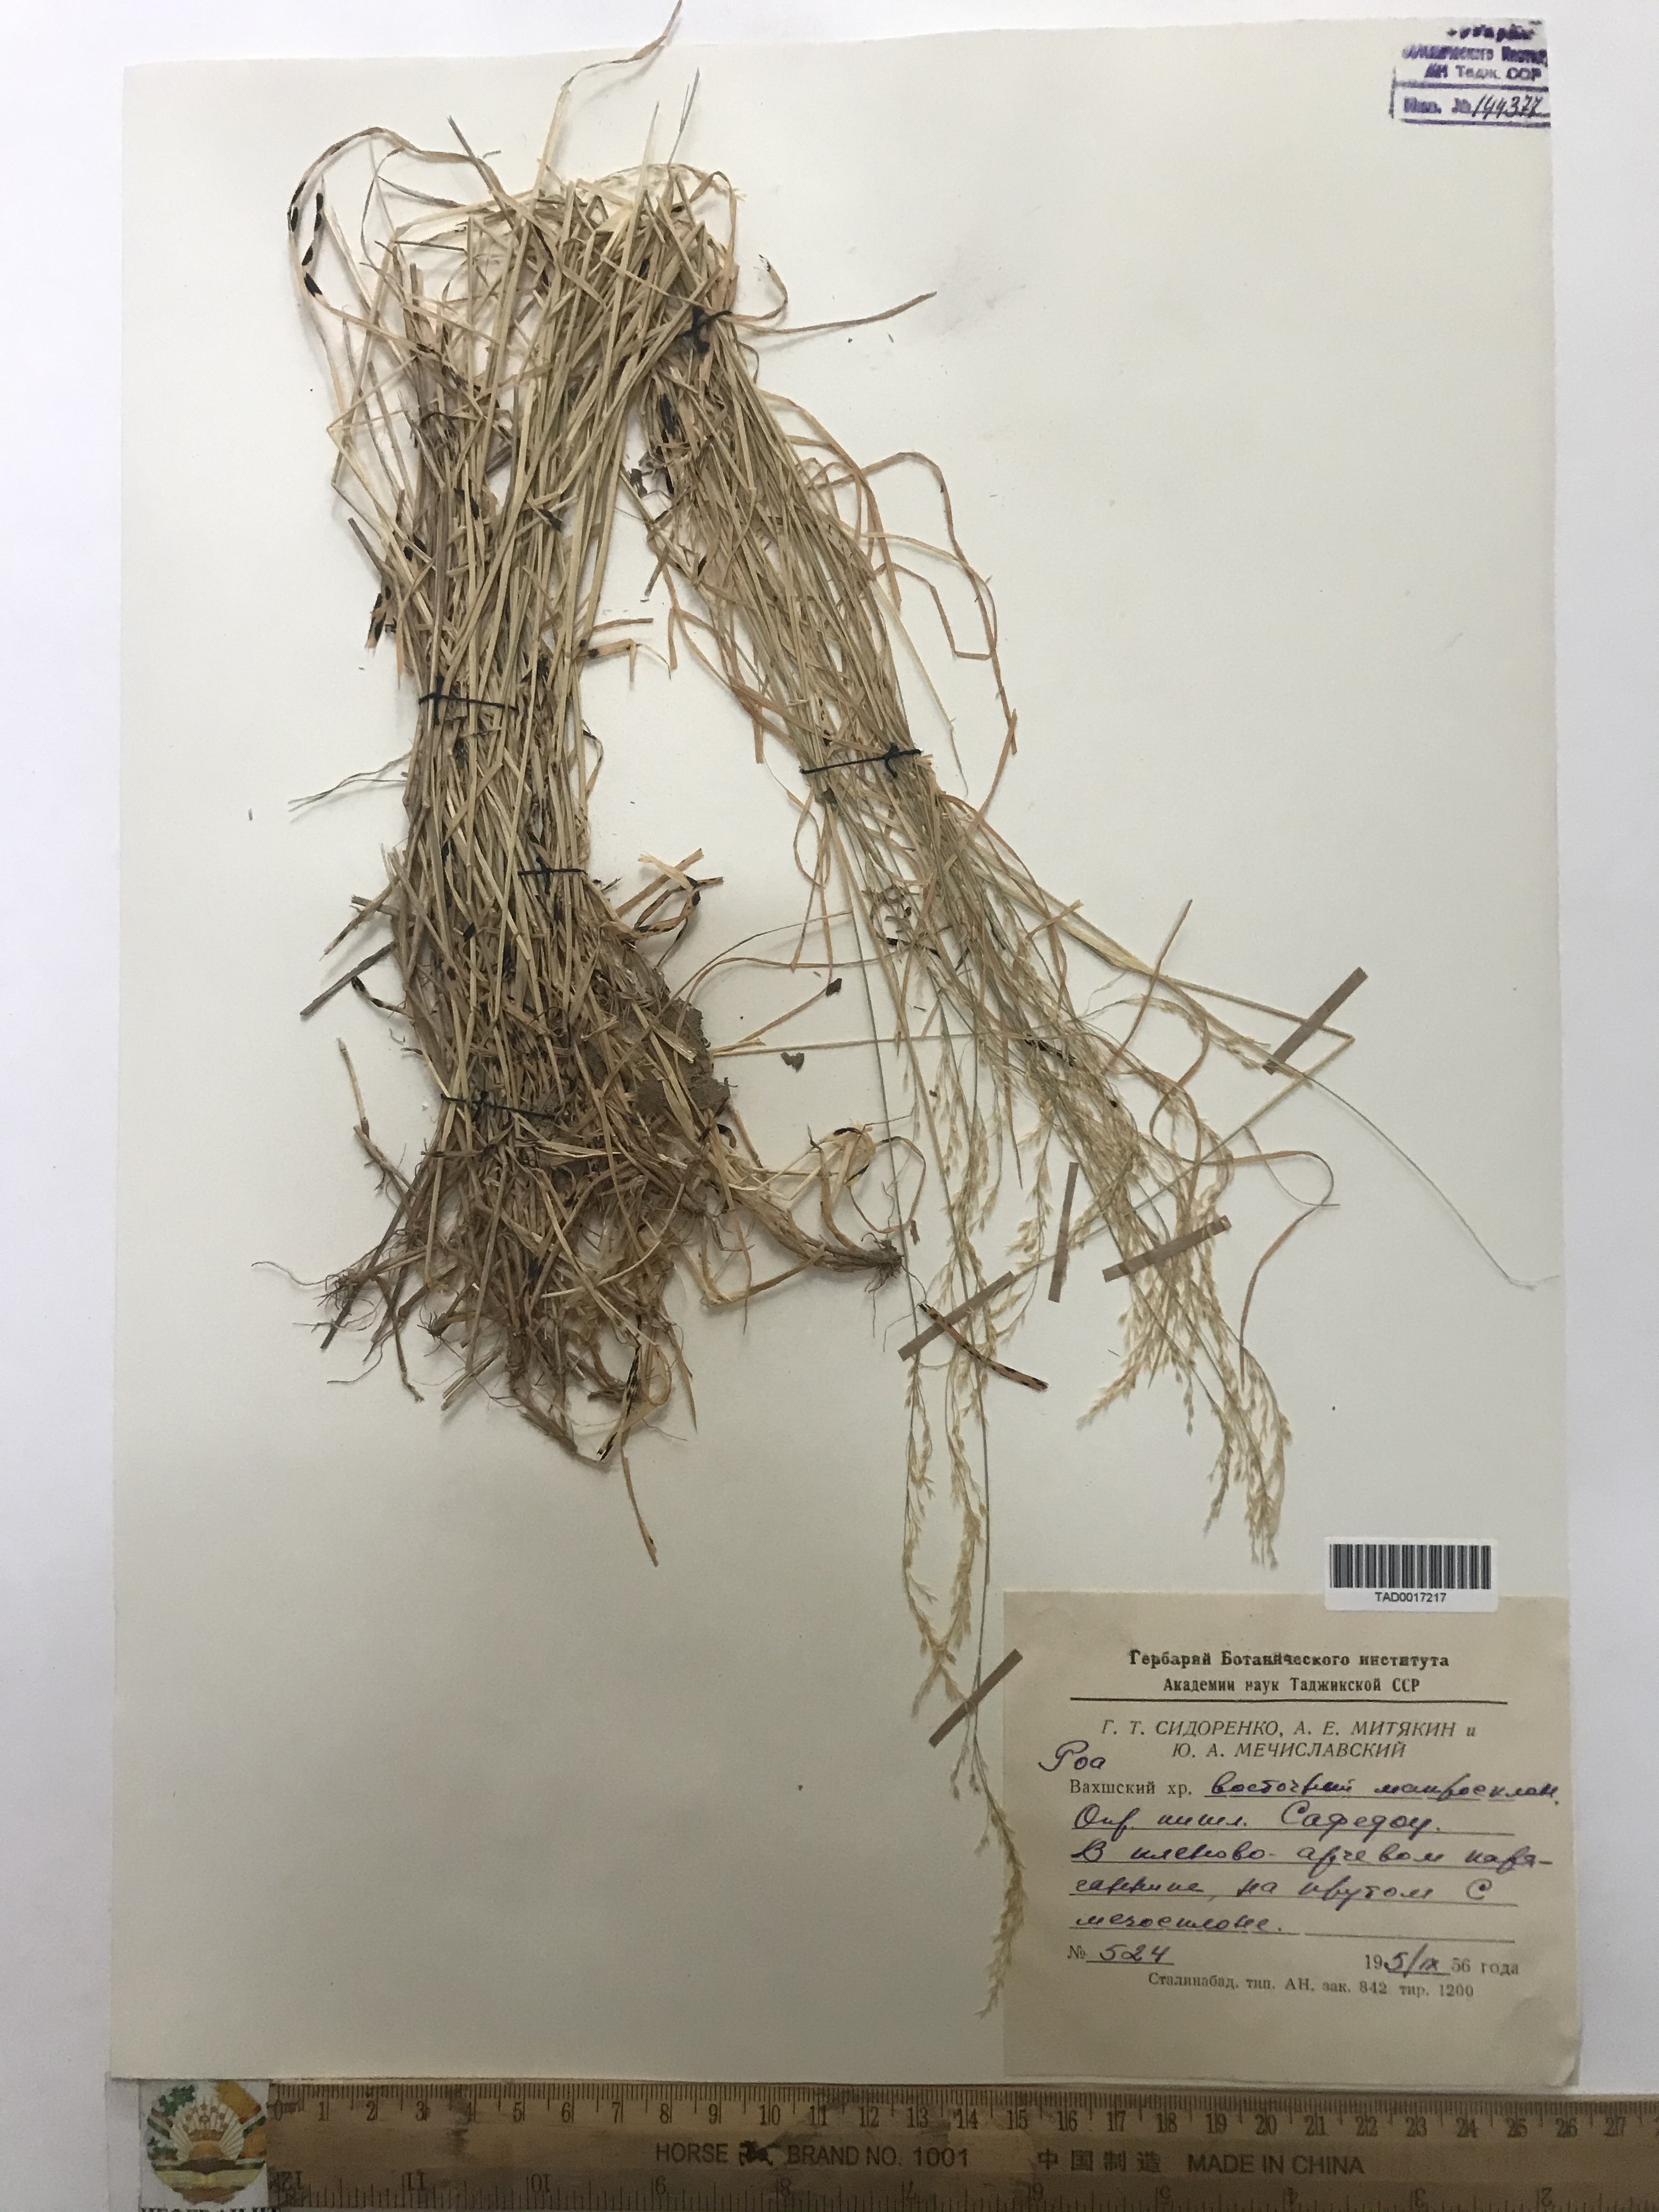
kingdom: Plantae
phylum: Tracheophyta
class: Liliopsida
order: Poales
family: Poaceae
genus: Poa
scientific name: Poa urssulensis
